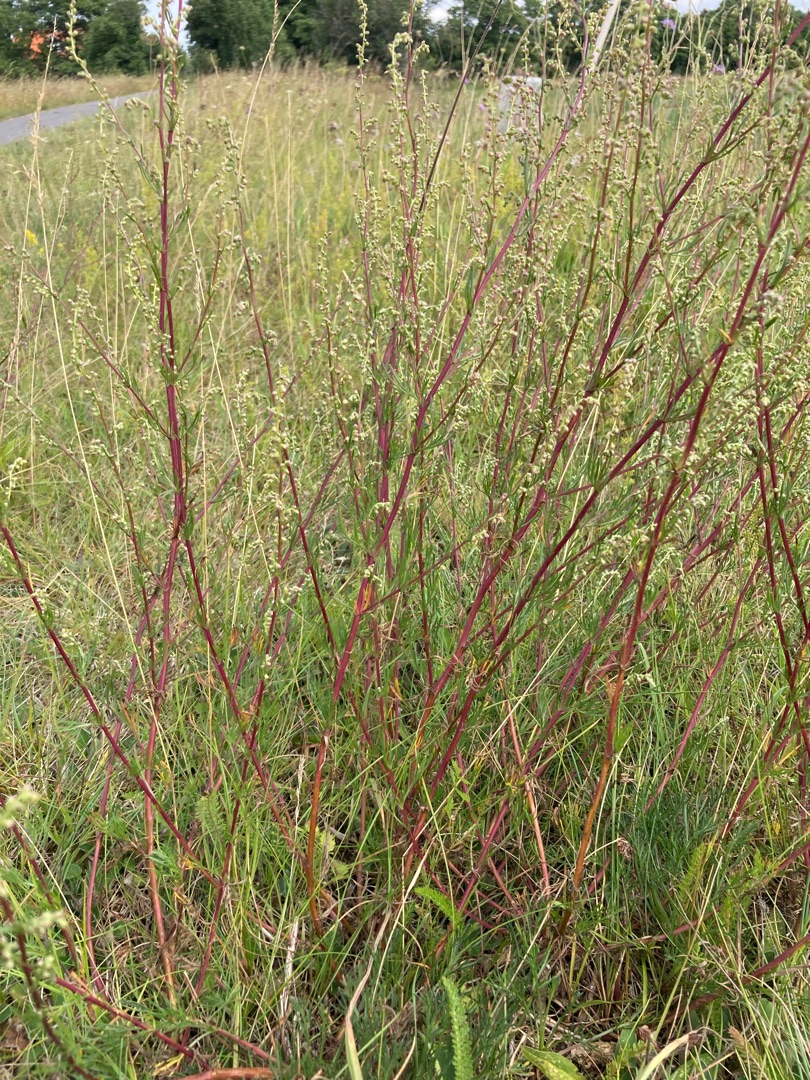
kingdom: Plantae
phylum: Tracheophyta
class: Magnoliopsida
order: Asterales
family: Asteraceae
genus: Artemisia
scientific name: Artemisia campestris
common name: Mark-bynke
